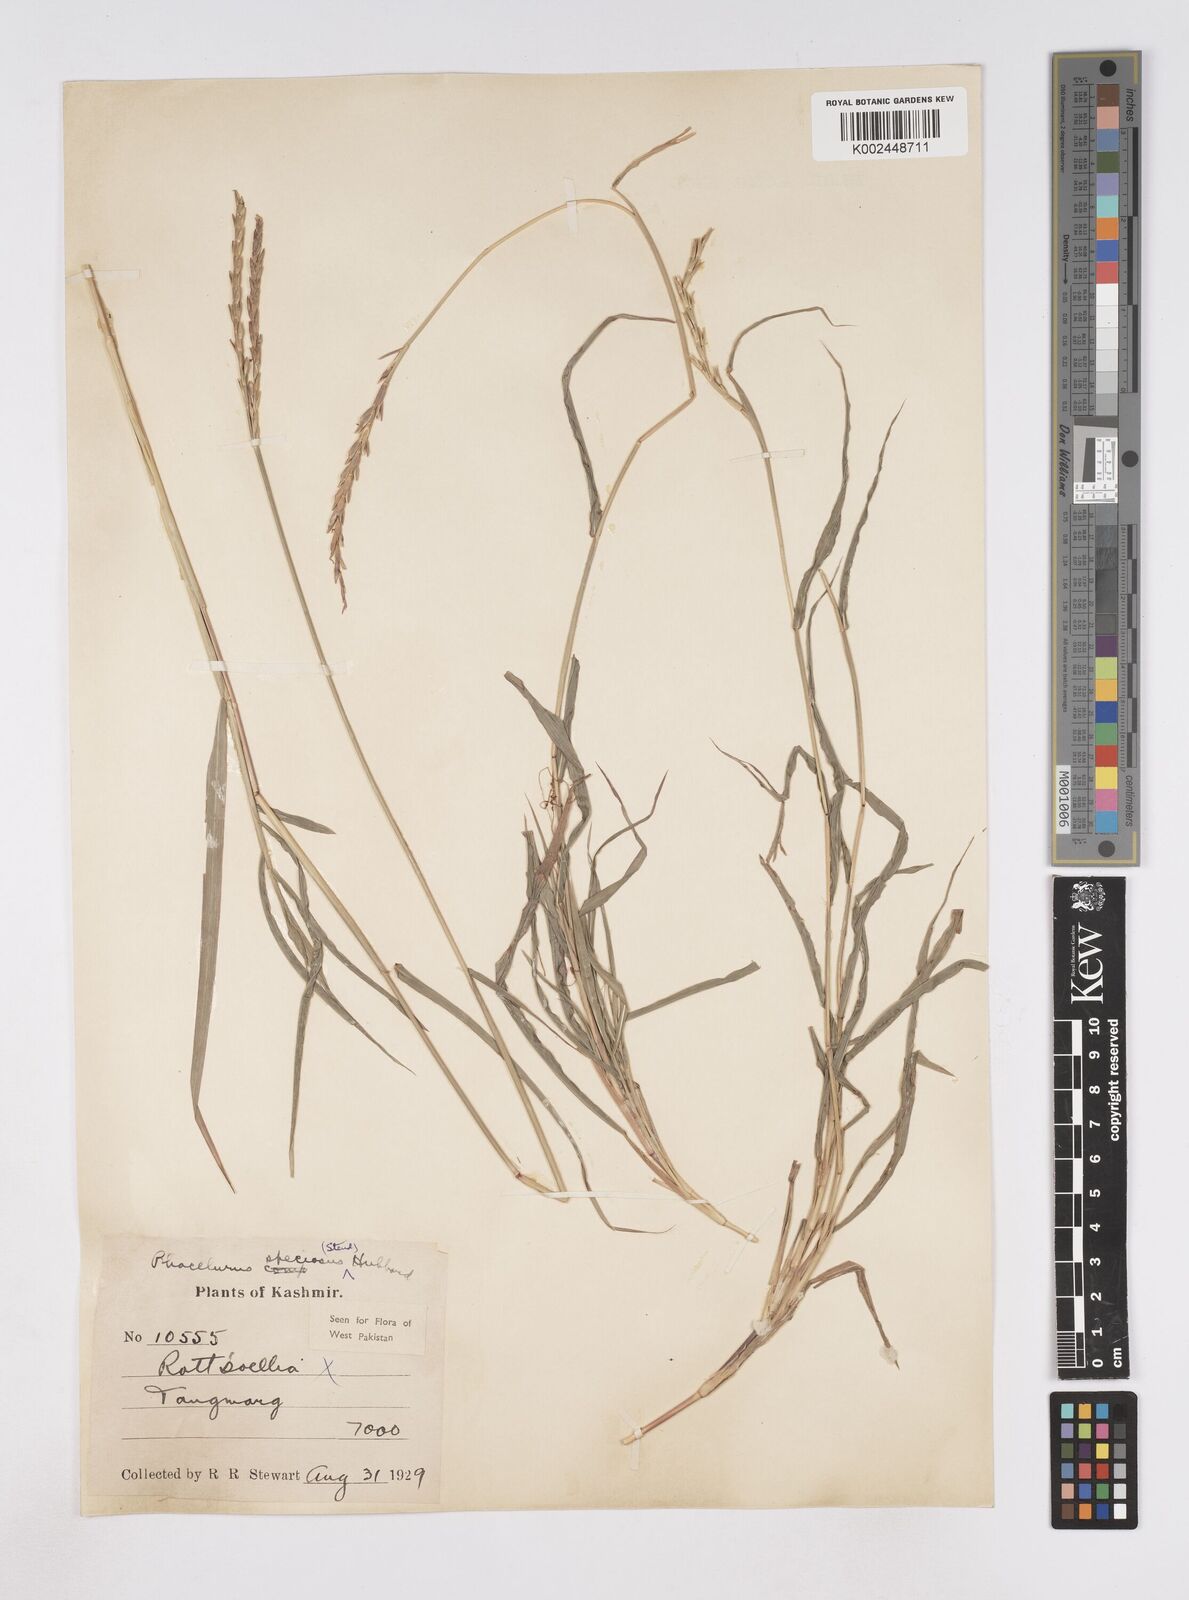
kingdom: Plantae
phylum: Tracheophyta
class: Liliopsida
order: Poales
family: Poaceae
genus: Phacelurus
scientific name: Phacelurus speciosus
